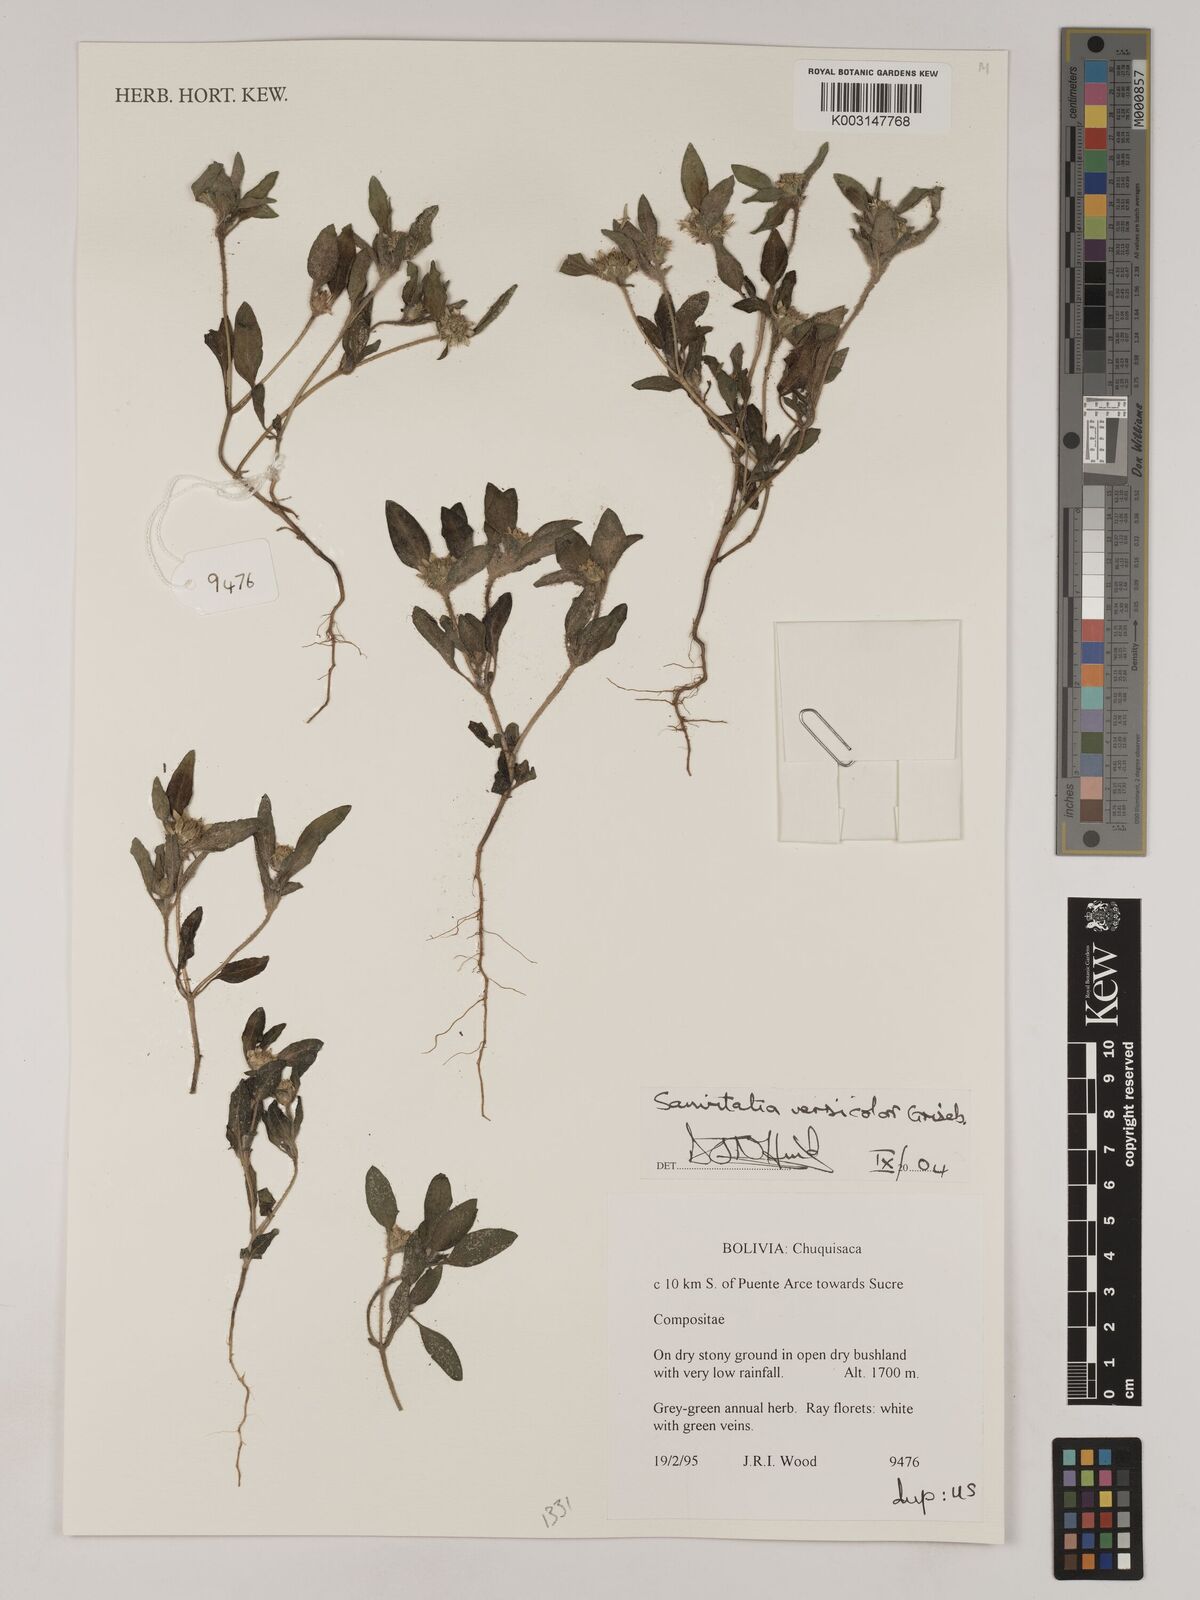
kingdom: Plantae
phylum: Tracheophyta
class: Magnoliopsida
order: Asterales
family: Asteraceae
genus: Sanvitalia
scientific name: Sanvitalia versicolor
